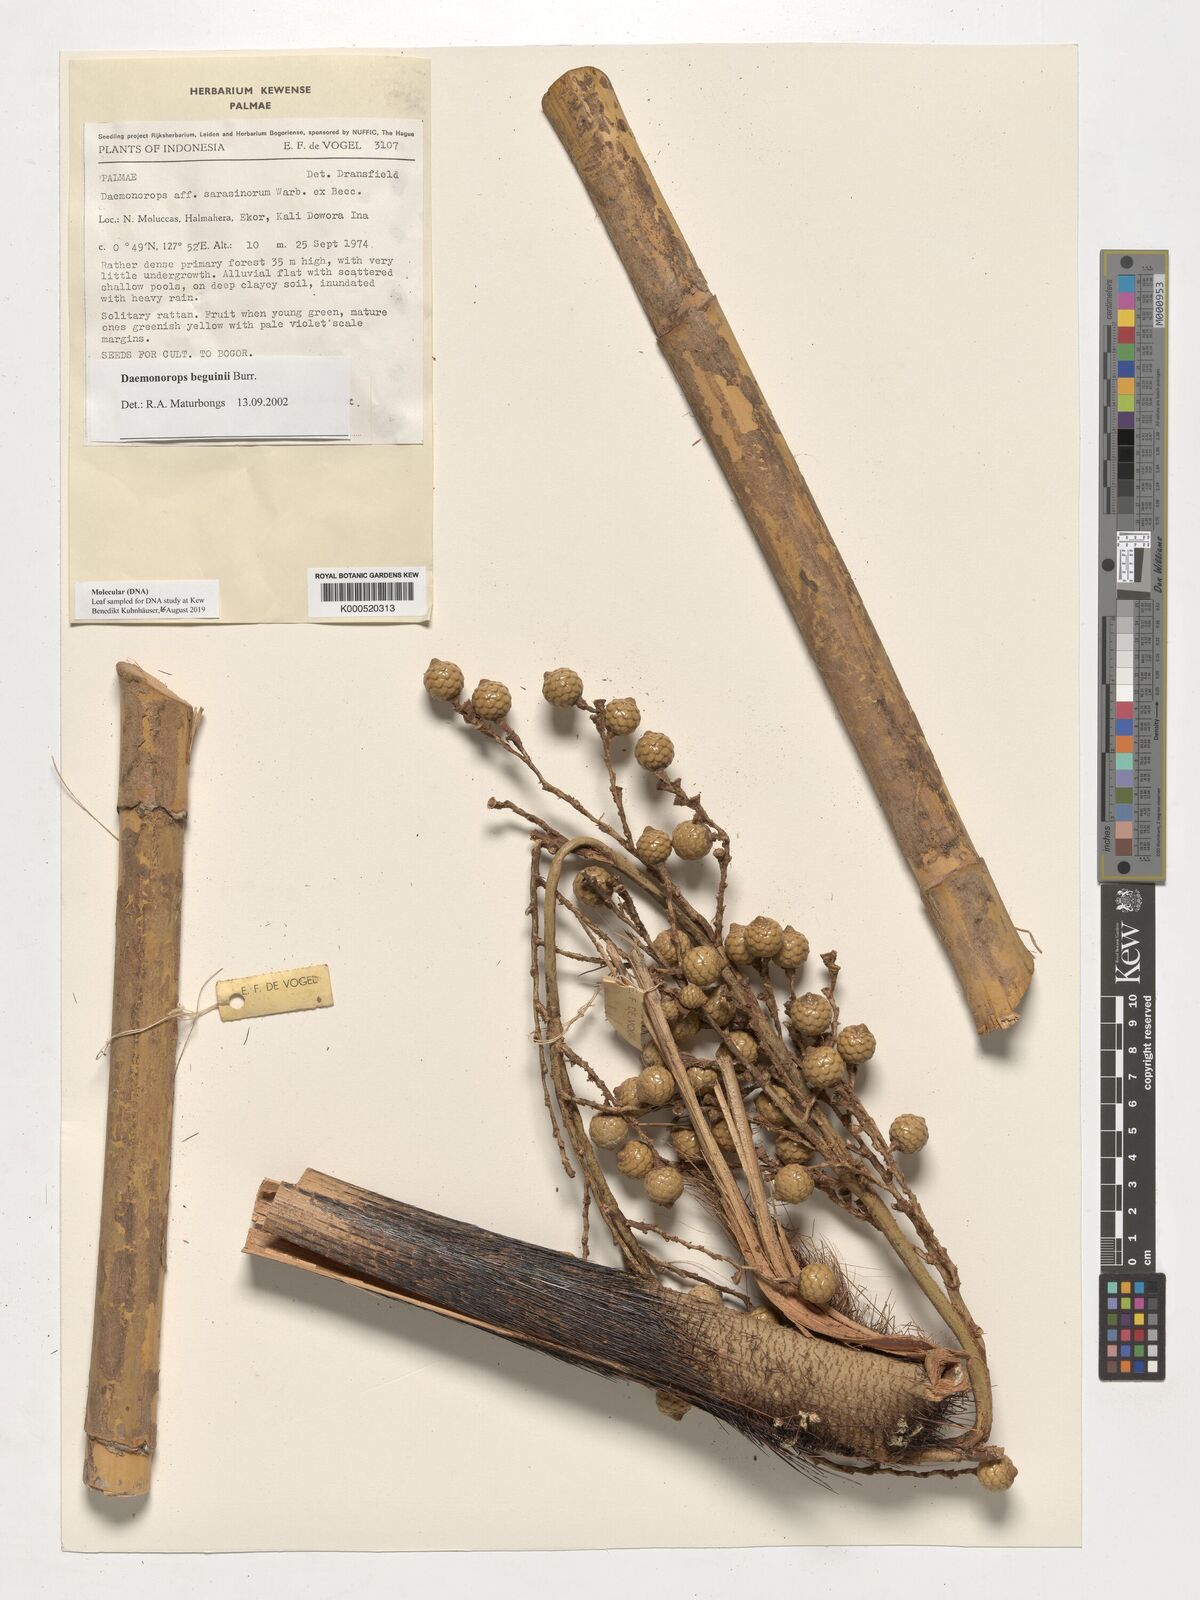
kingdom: Plantae
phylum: Tracheophyta
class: Liliopsida
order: Arecales
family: Arecaceae
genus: Calamus
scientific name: Calamus calapparius
